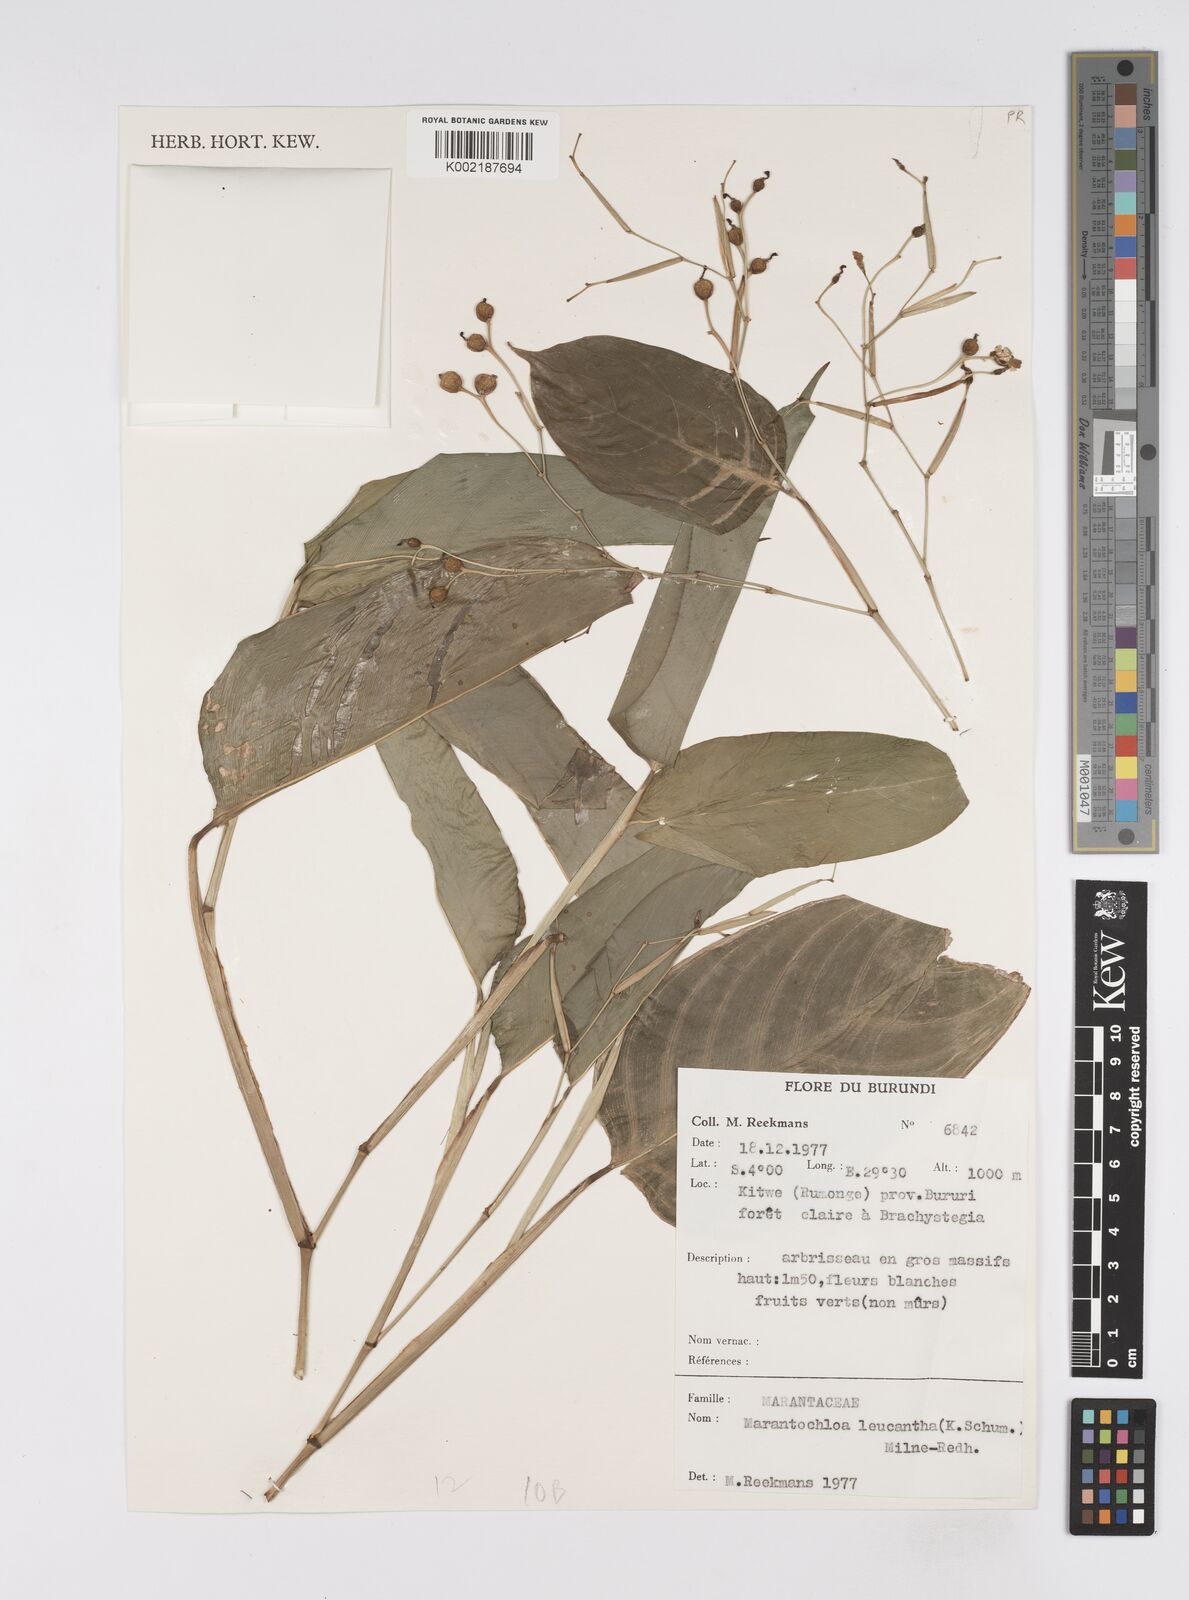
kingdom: Plantae
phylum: Tracheophyta
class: Liliopsida
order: Zingiberales
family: Marantaceae
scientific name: Marantaceae
